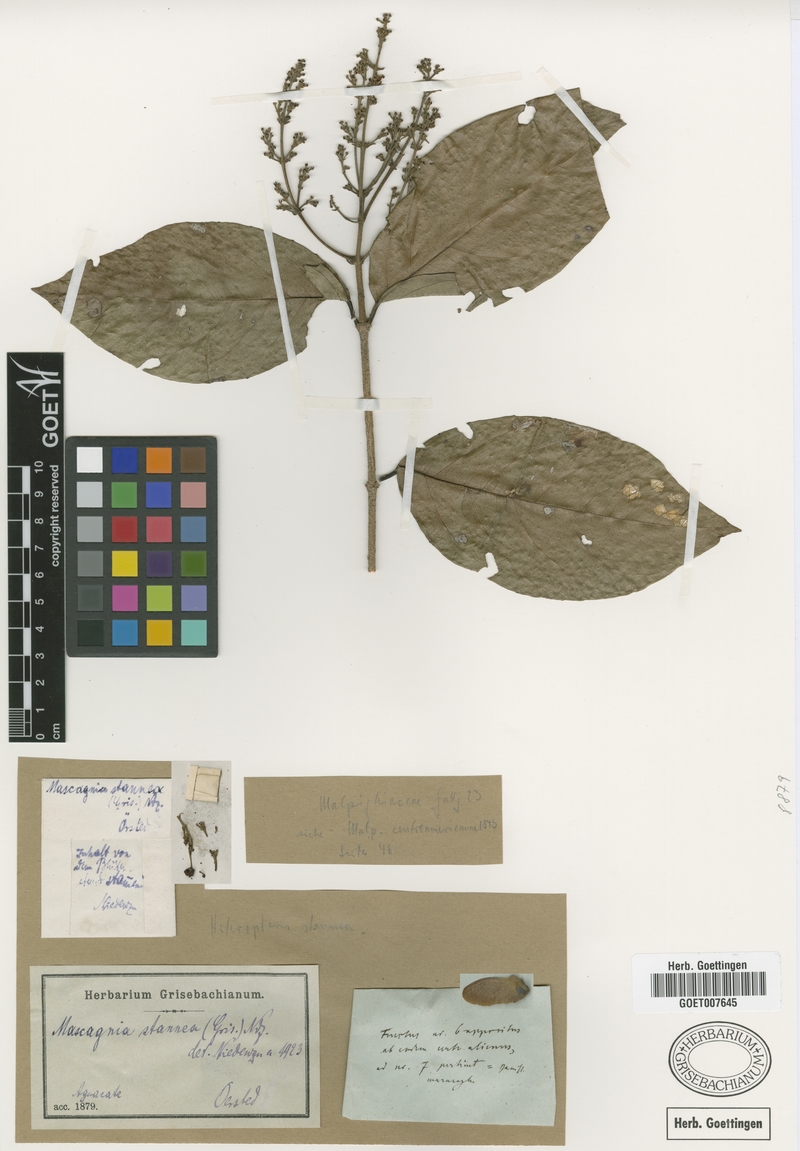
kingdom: Plantae
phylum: Tracheophyta
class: Magnoliopsida
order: Malpighiales
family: Malpighiaceae
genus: Niedenzuella
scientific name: Niedenzuella stannea
